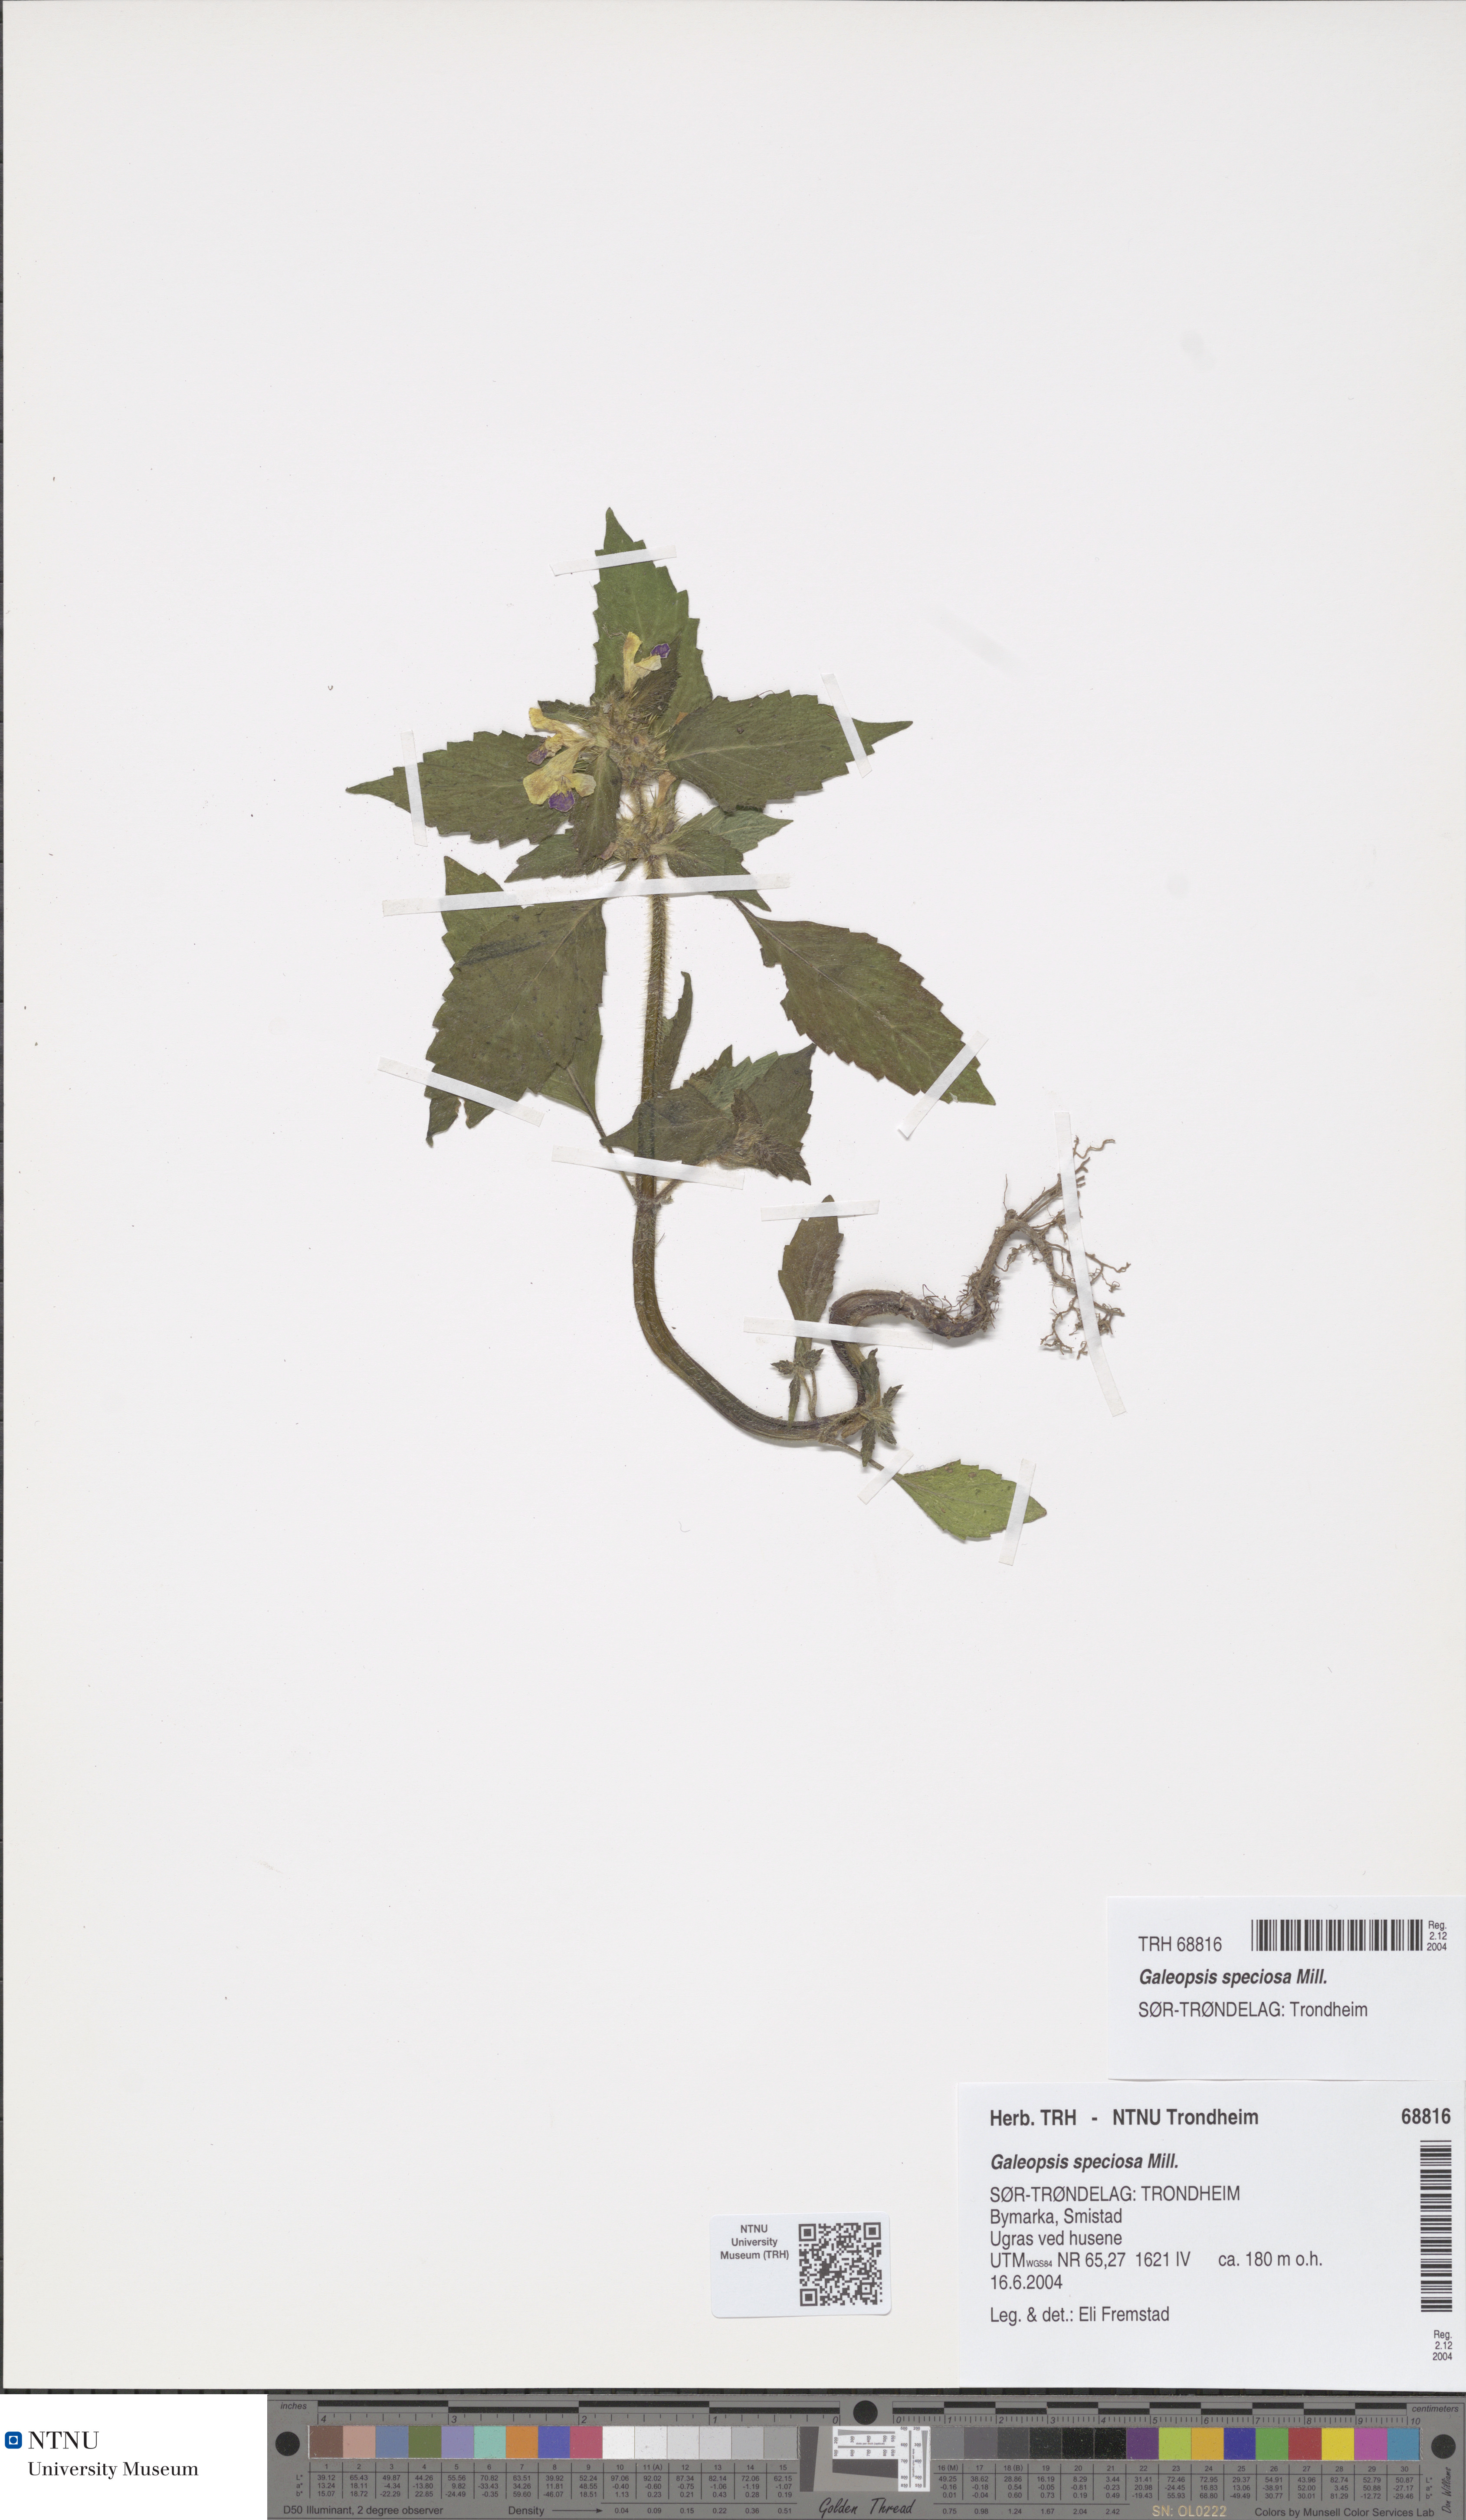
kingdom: Plantae
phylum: Tracheophyta
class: Magnoliopsida
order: Lamiales
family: Lamiaceae
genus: Galeopsis
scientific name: Galeopsis speciosa
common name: Large-flowered hemp-nettle
